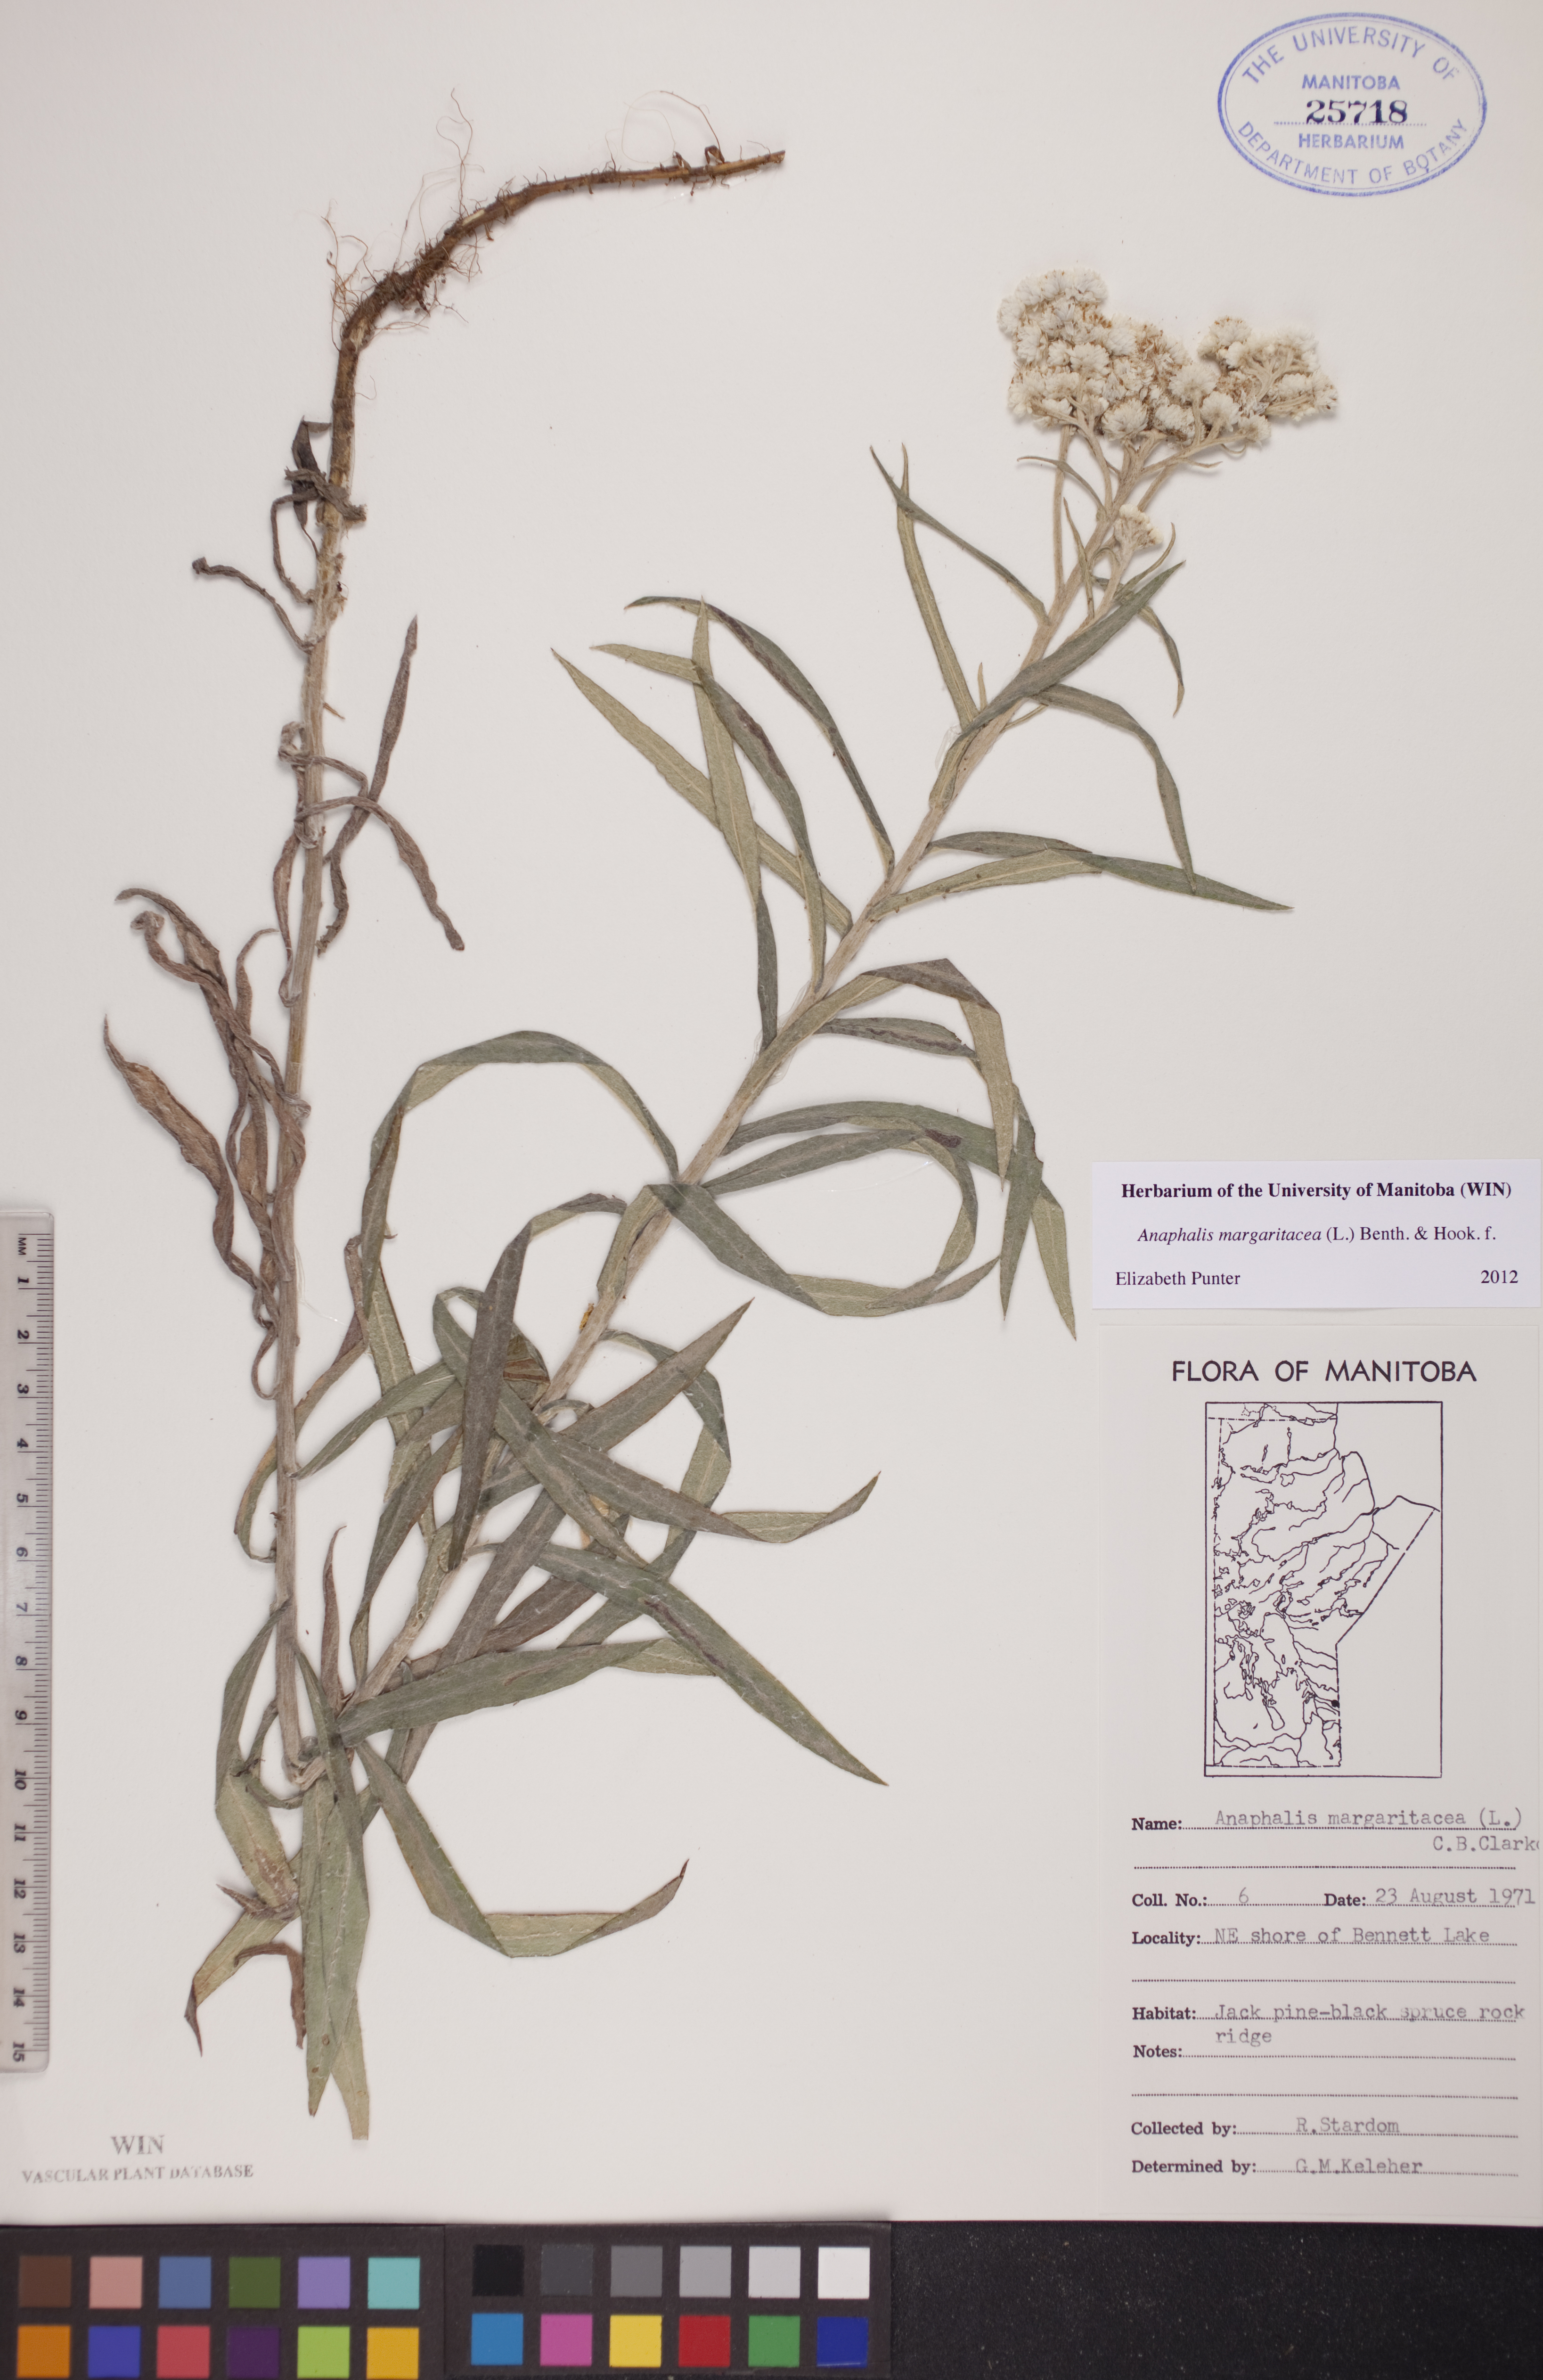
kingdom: Plantae
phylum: Tracheophyta
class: Magnoliopsida
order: Asterales
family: Asteraceae
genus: Anaphalis
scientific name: Anaphalis margaritacea
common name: Pearly everlasting
